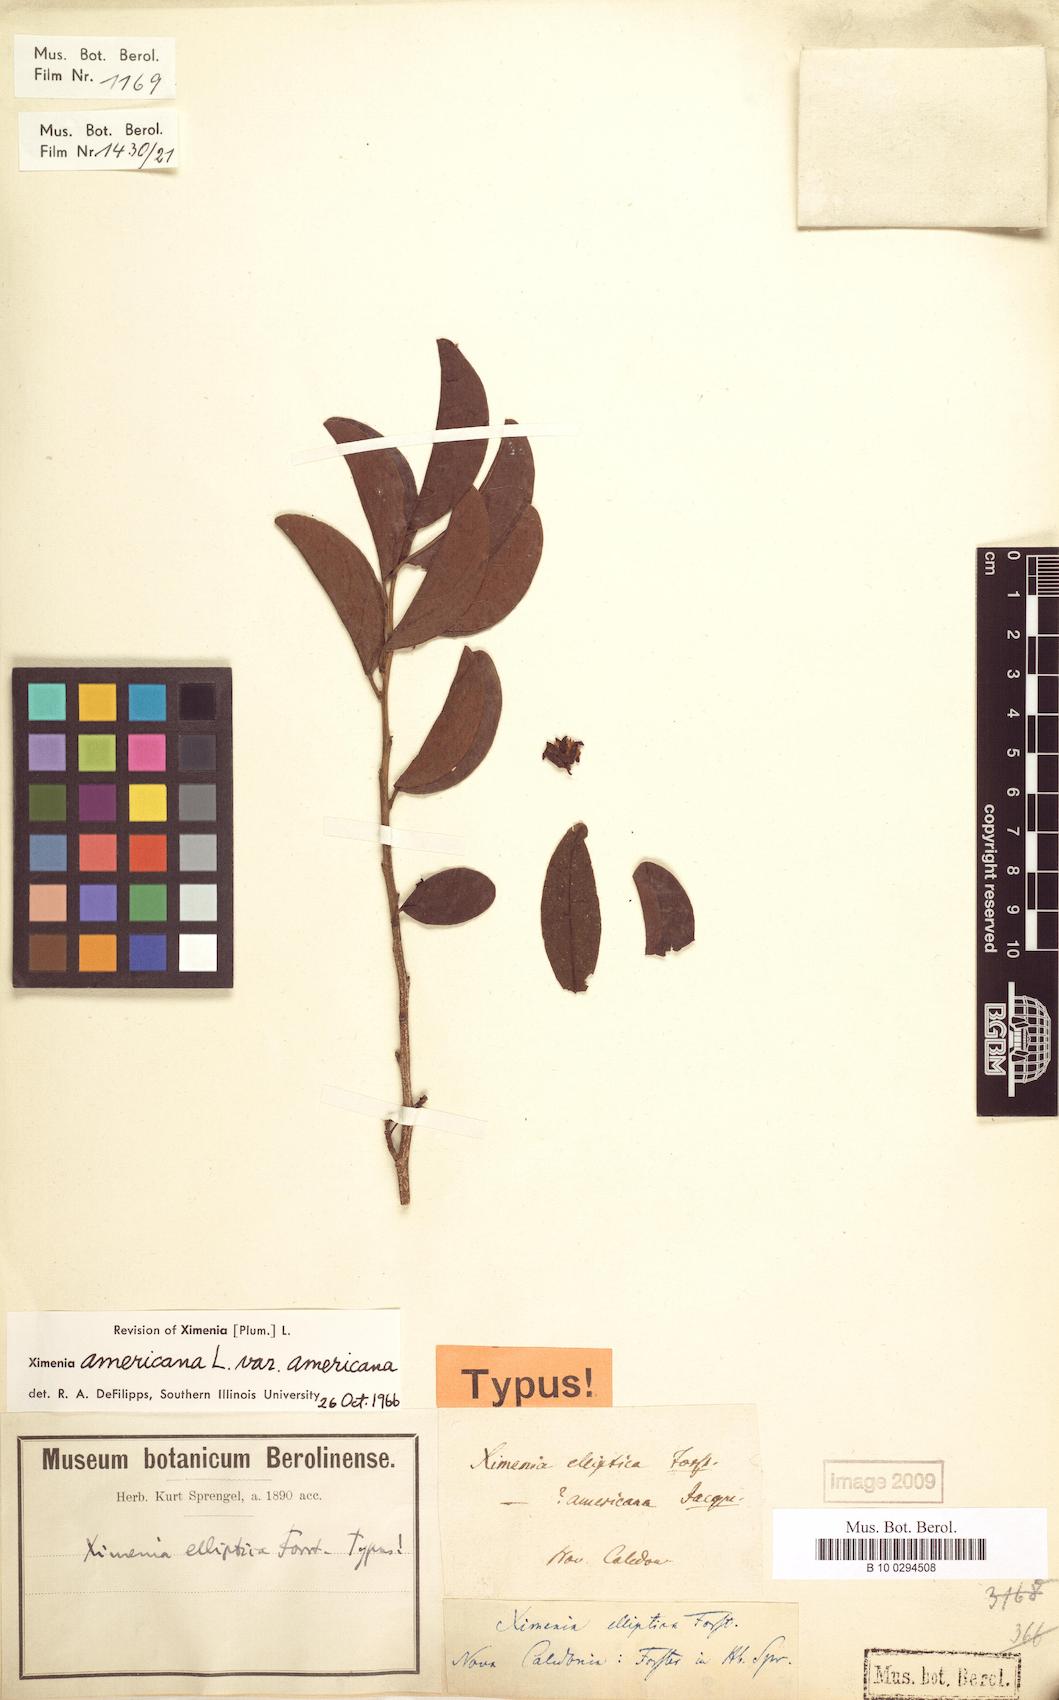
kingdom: Plantae
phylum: Tracheophyta
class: Magnoliopsida
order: Santalales
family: Ximeniaceae
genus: Ximenia
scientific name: Ximenia americana
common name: Tallowwood
